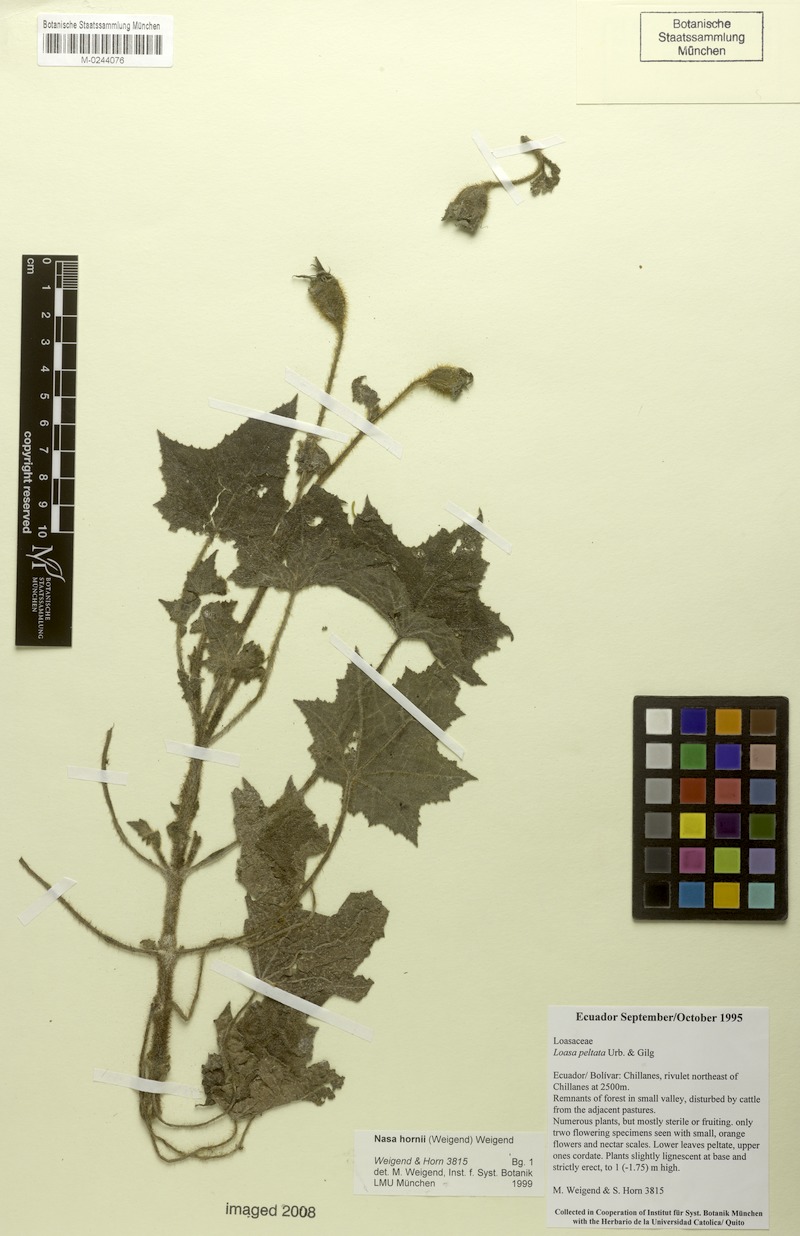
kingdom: Plantae
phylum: Tracheophyta
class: Magnoliopsida
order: Cornales
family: Loasaceae
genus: Nasa
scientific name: Nasa hornii
